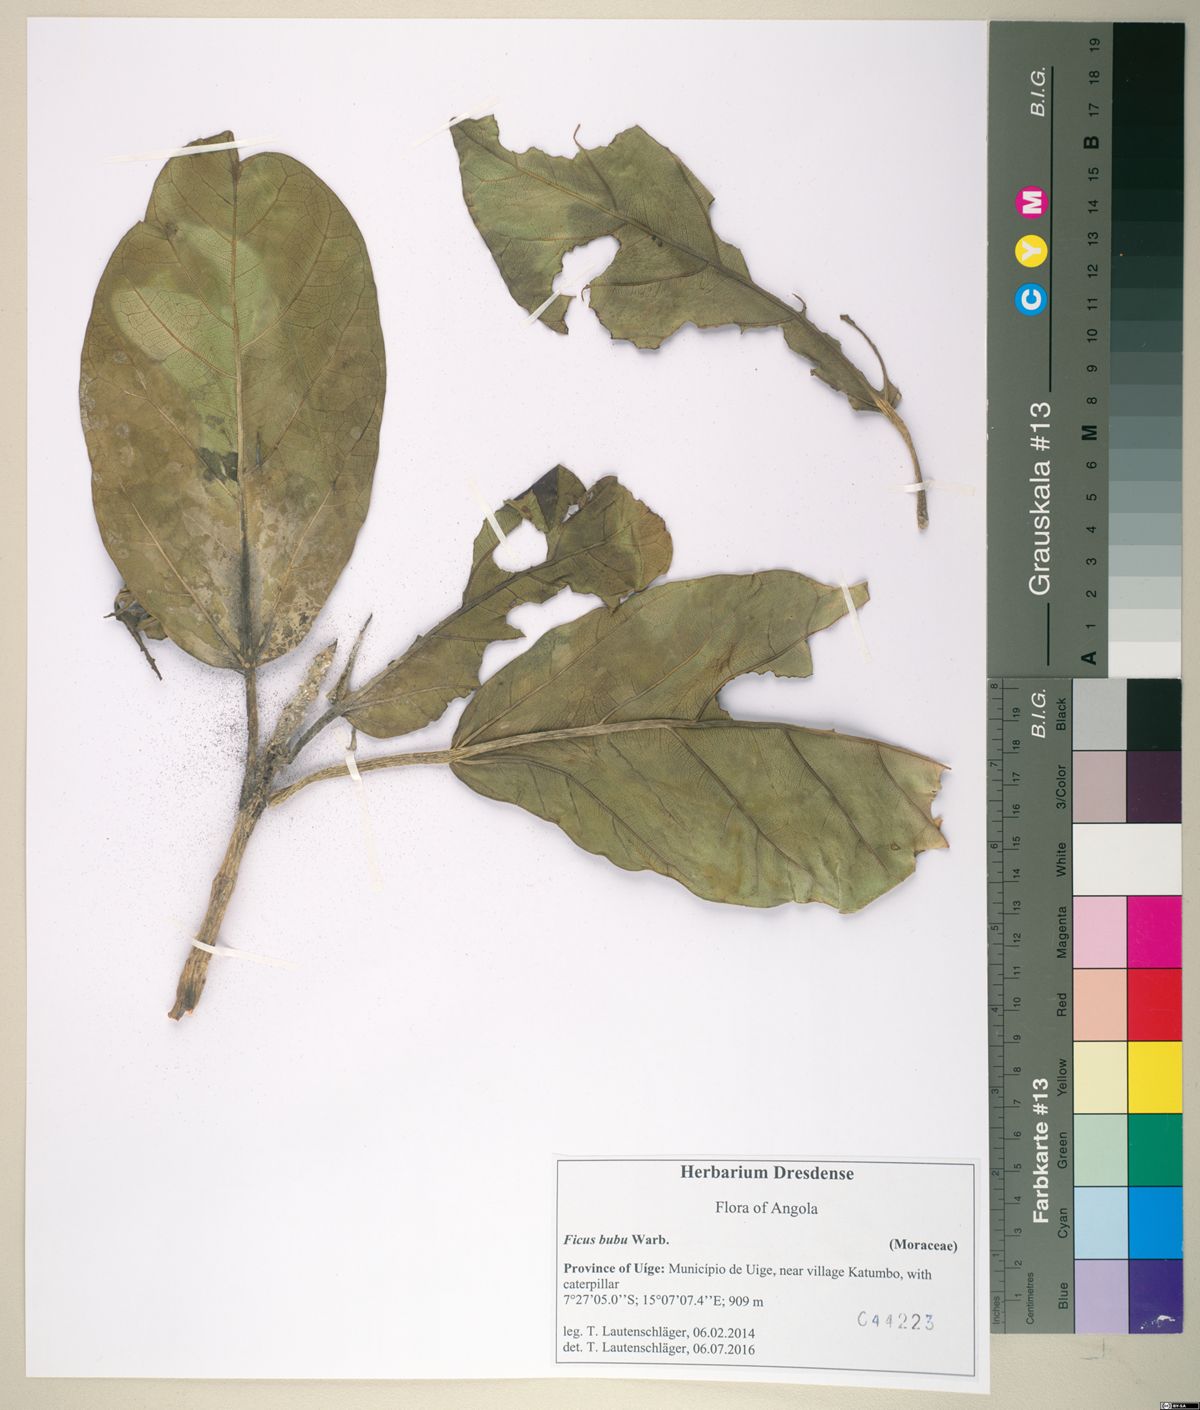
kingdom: Plantae
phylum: Tracheophyta
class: Magnoliopsida
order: Rosales
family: Moraceae
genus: Ficus
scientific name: Ficus bubu
